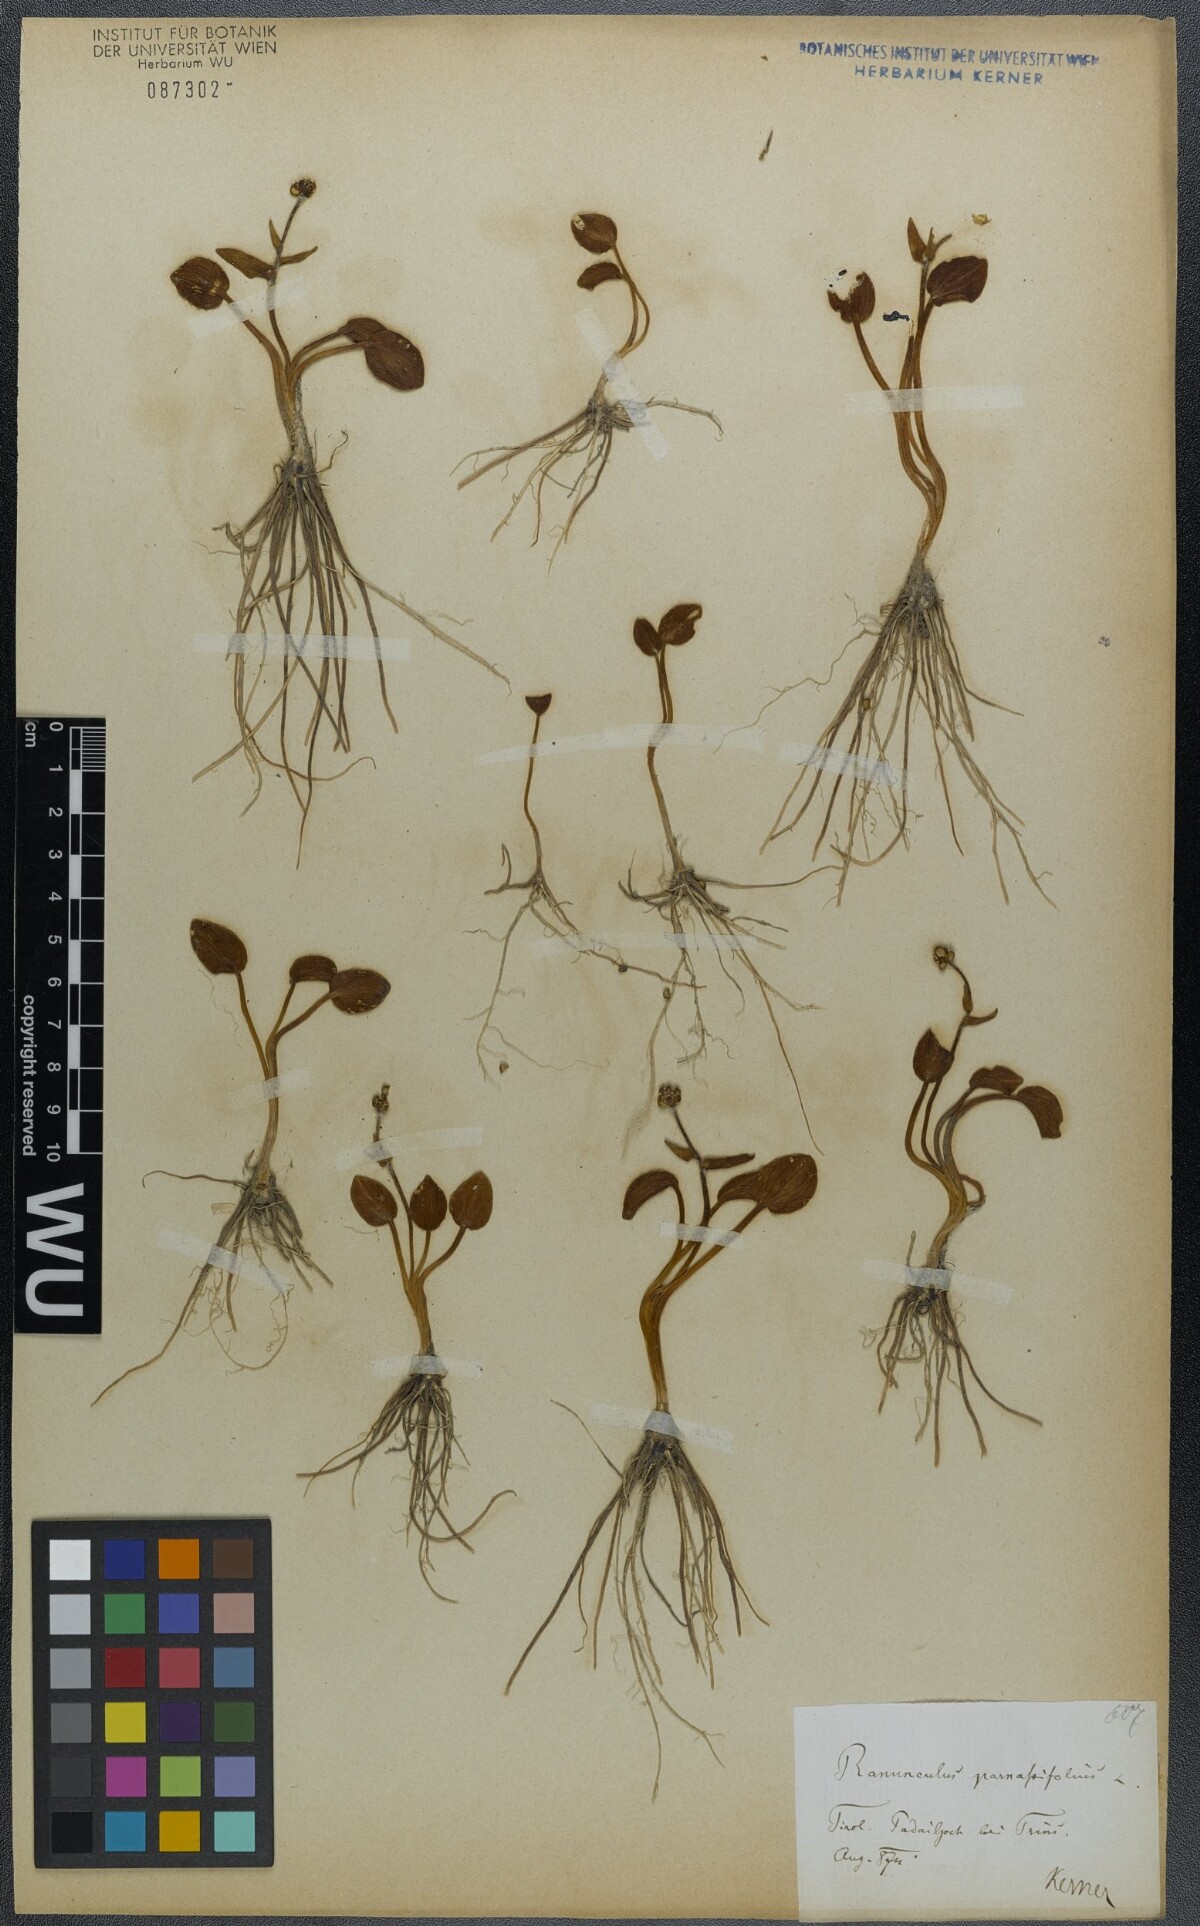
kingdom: Plantae
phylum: Tracheophyta
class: Magnoliopsida
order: Ranunculales
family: Ranunculaceae
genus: Ranunculus
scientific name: Ranunculus parnassiifolius
